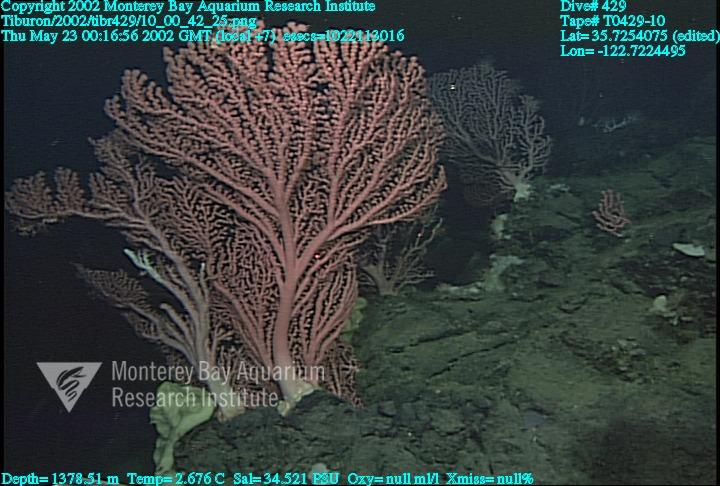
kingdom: Animalia
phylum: Porifera
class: Hexactinellida
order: Lyssacinosida
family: Rossellidae
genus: Staurocalyptus
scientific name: Staurocalyptus
